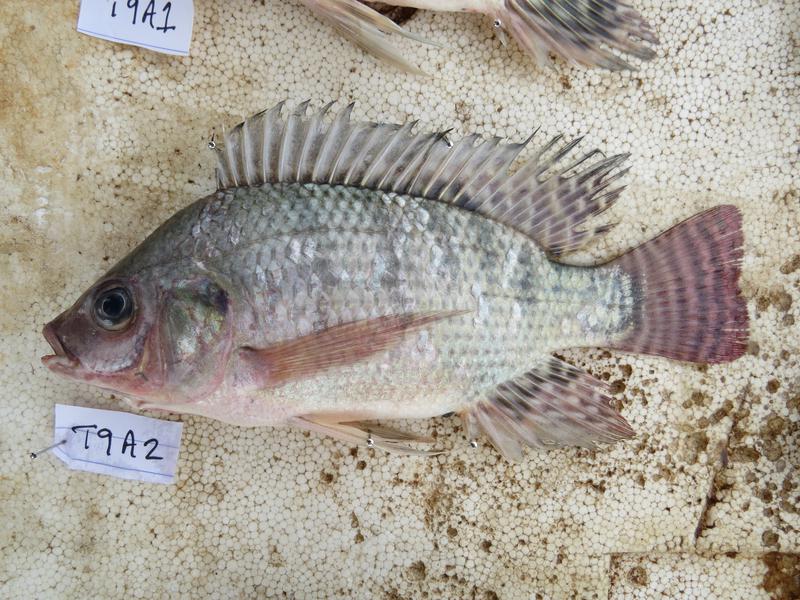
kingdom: Animalia
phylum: Chordata
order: Perciformes
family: Cichlidae
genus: Oreochromis
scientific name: Oreochromis niloticus
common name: Nile tilapia
